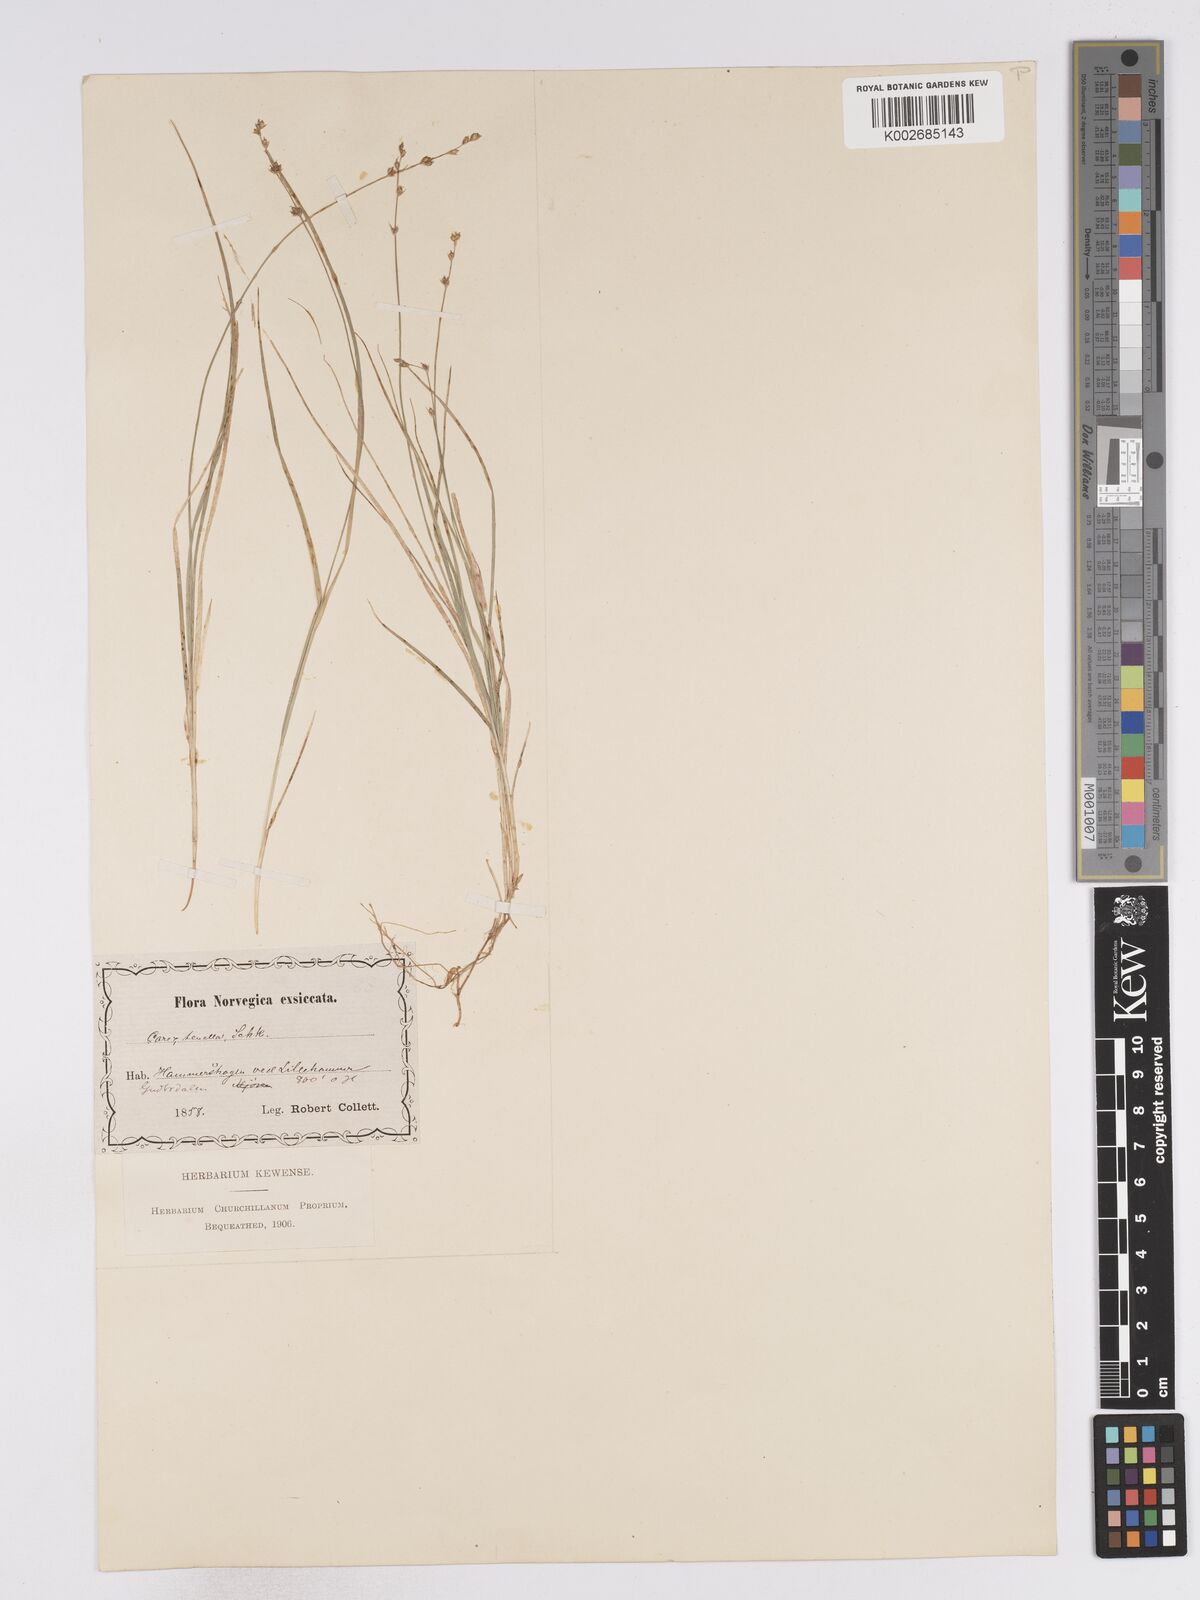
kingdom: Plantae
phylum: Tracheophyta
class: Liliopsida
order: Poales
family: Cyperaceae
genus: Carex
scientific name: Carex disperma
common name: Short-leaved sedge
